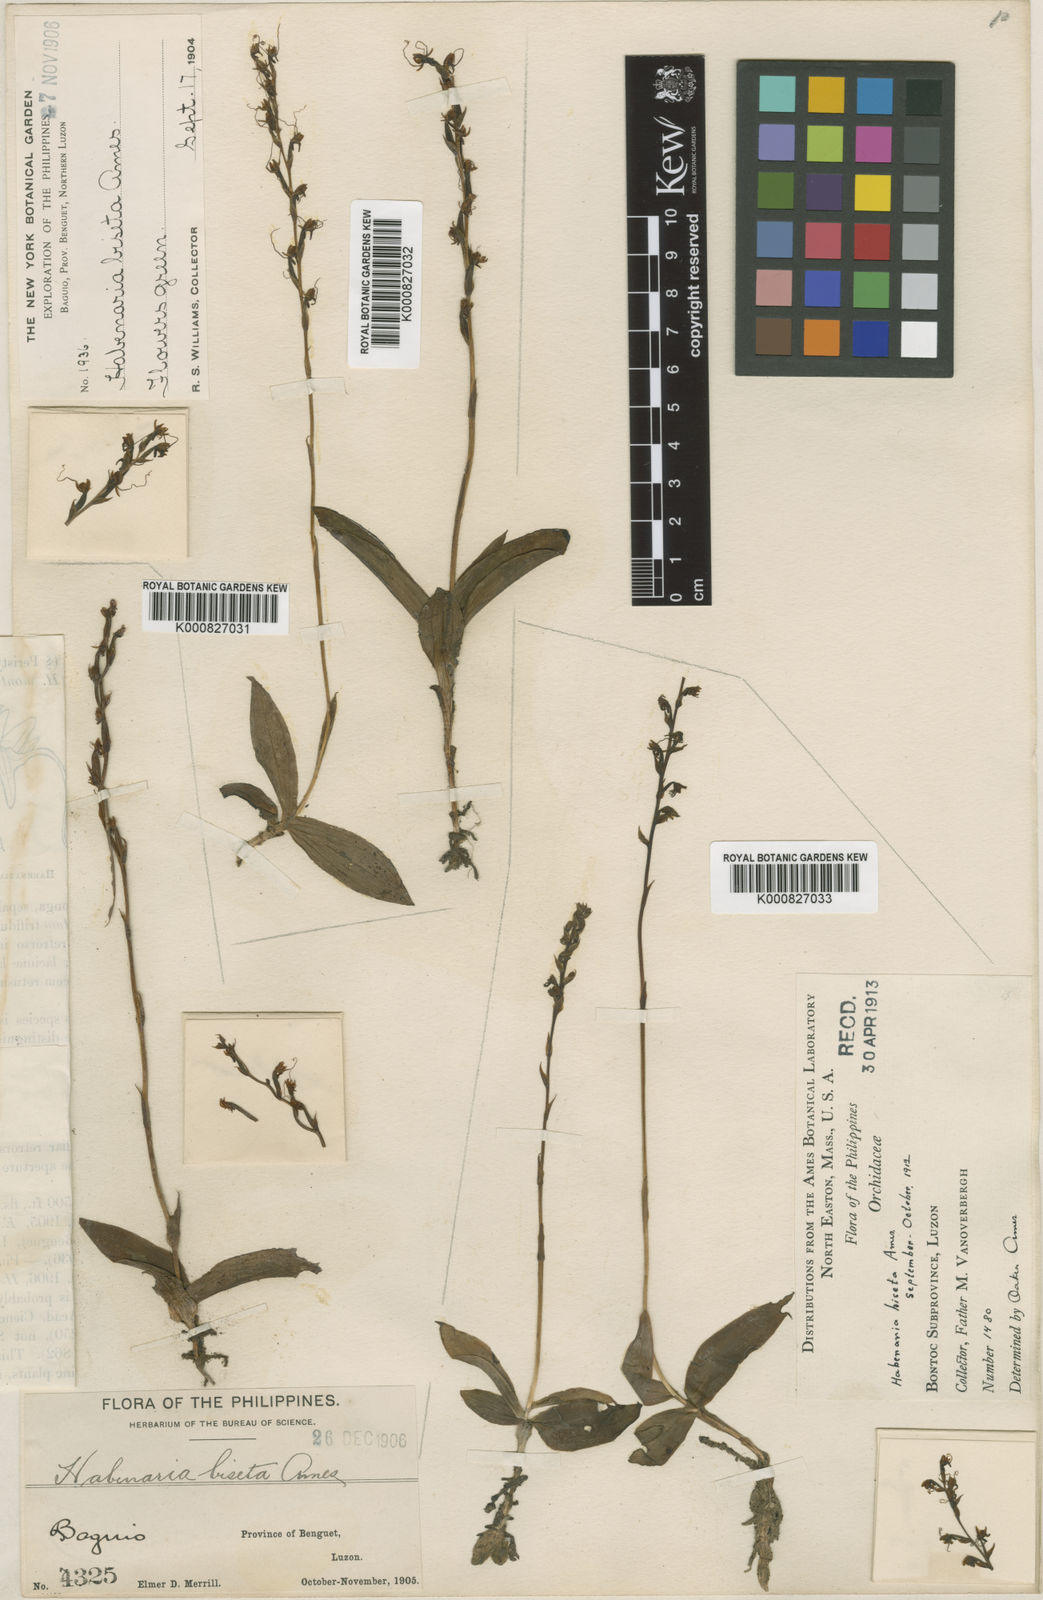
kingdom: Plantae
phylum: Tracheophyta
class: Liliopsida
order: Asparagales
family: Orchidaceae
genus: Peristylus
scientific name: Peristylus monticola
